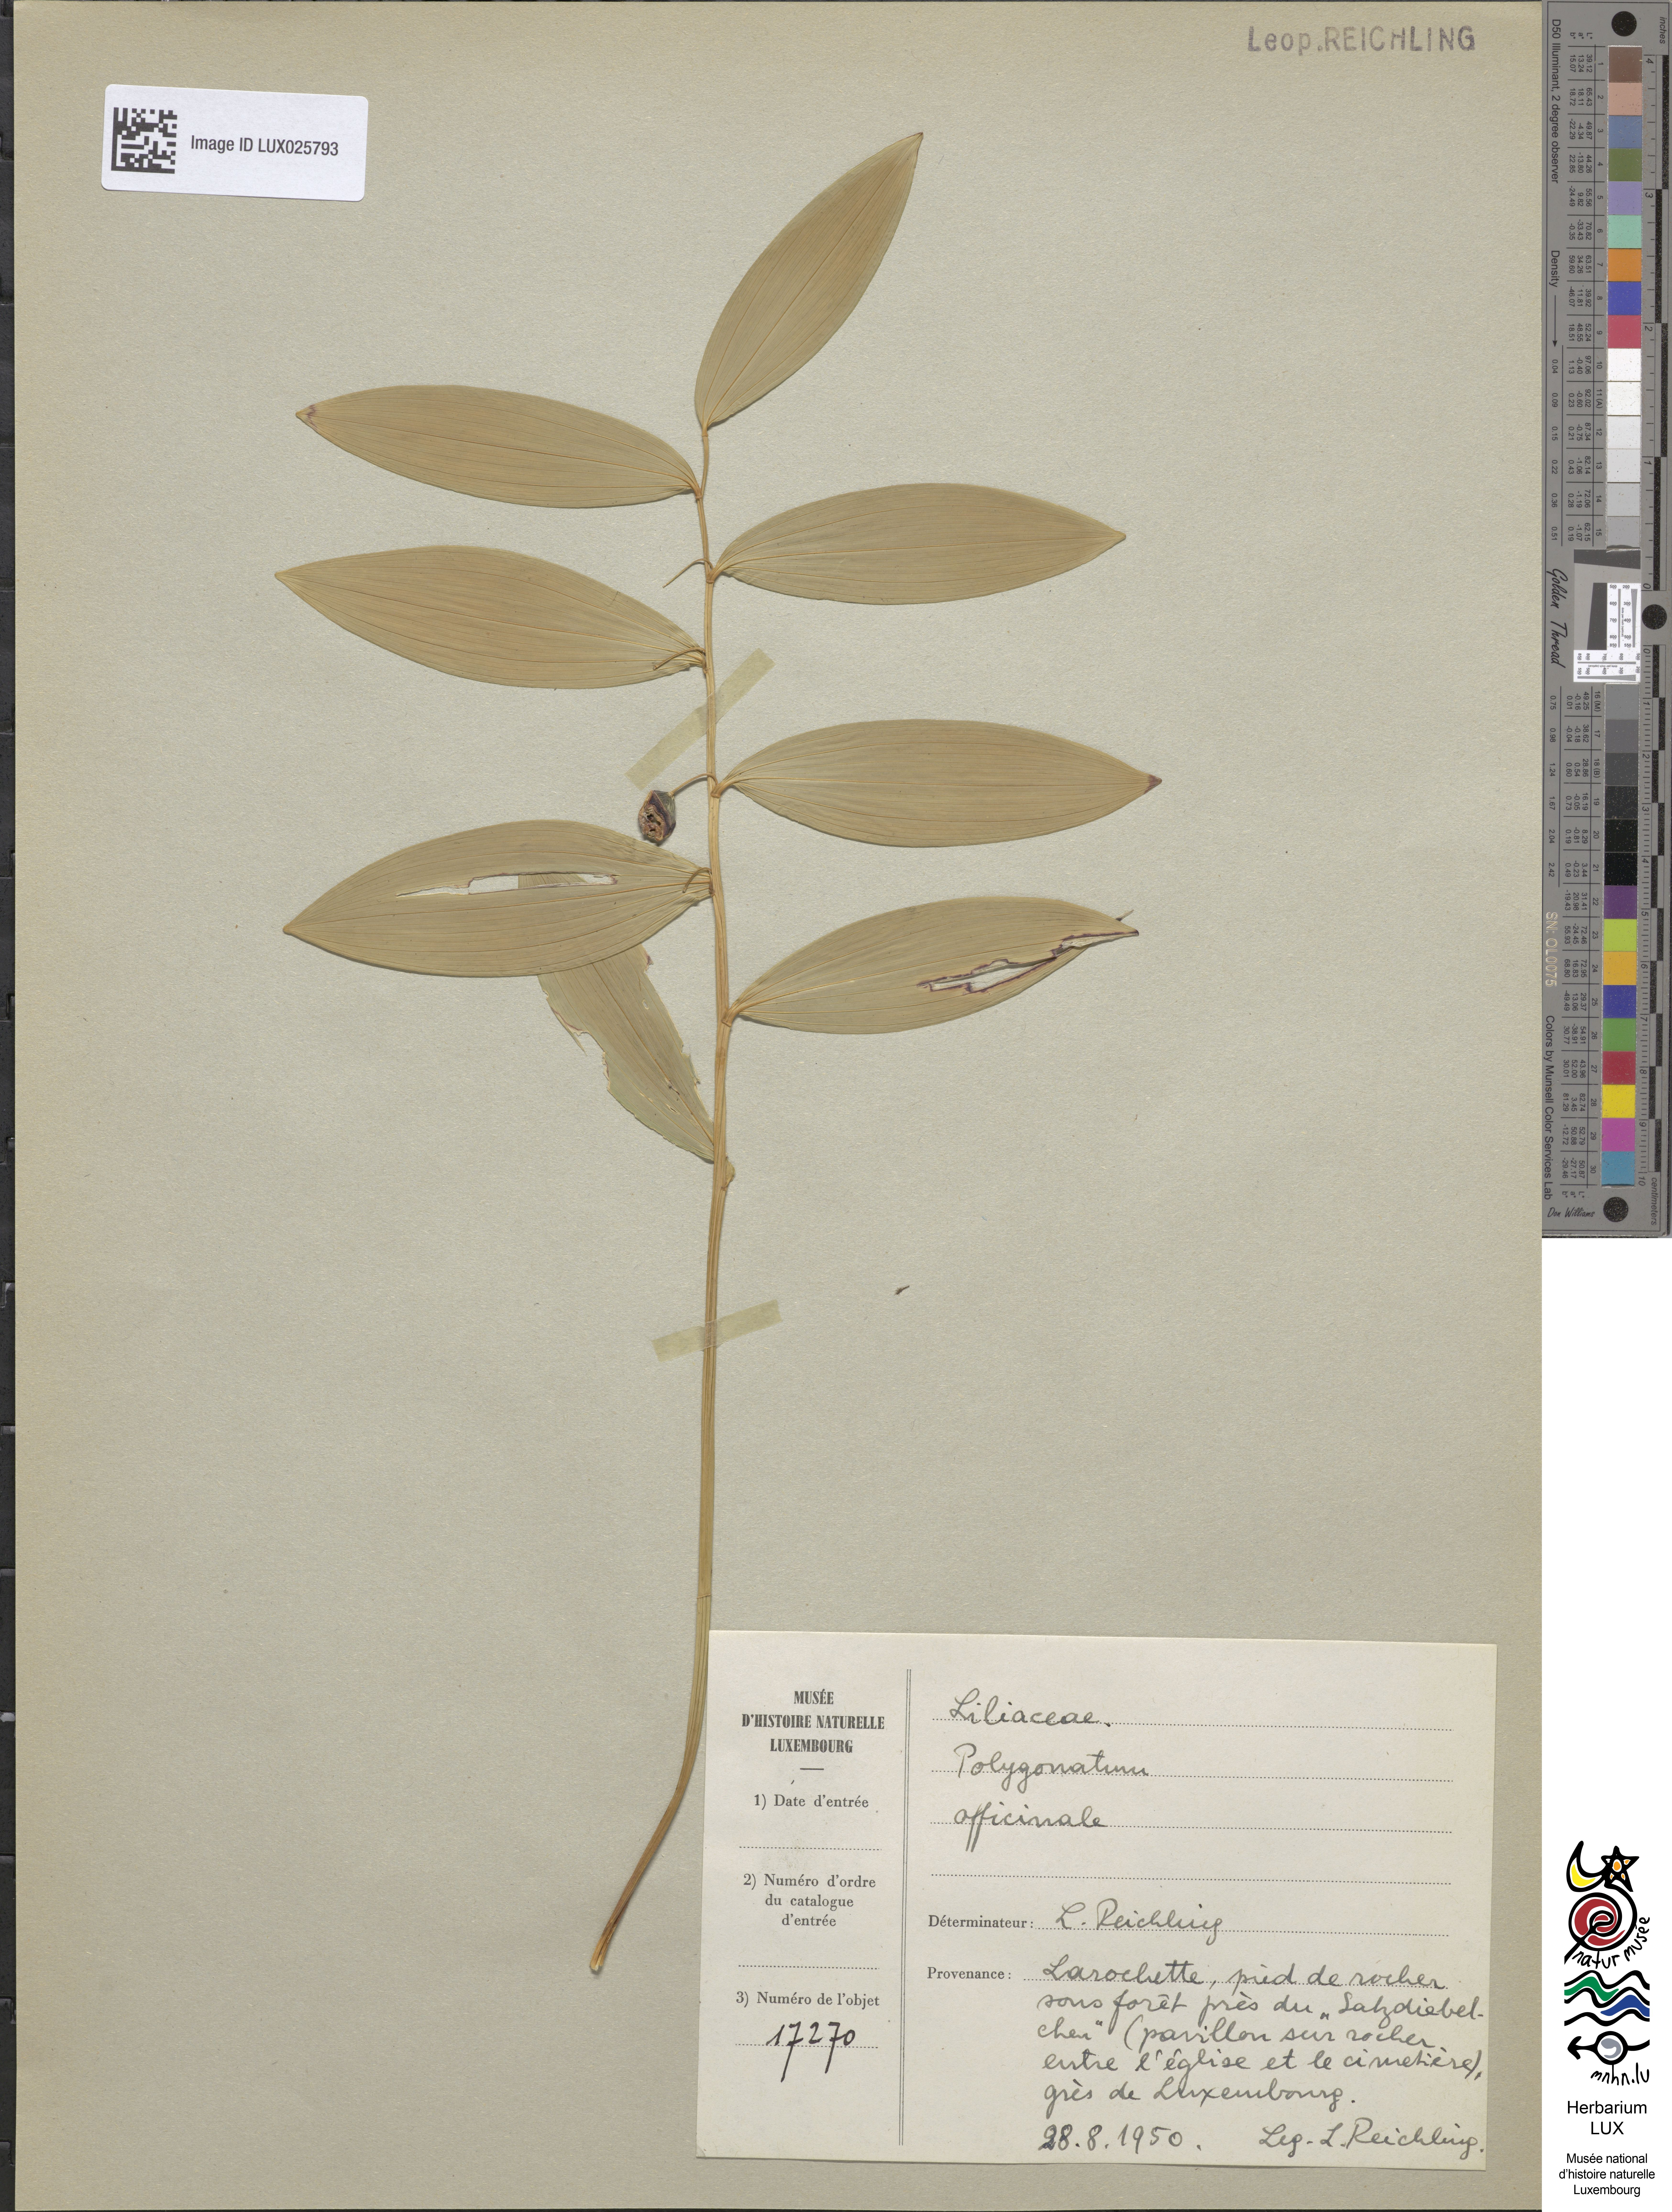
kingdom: Plantae
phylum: Tracheophyta
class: Liliopsida
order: Asparagales
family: Asparagaceae
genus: Polygonatum
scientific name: Polygonatum odoratum
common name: Angular solomon's-seal
